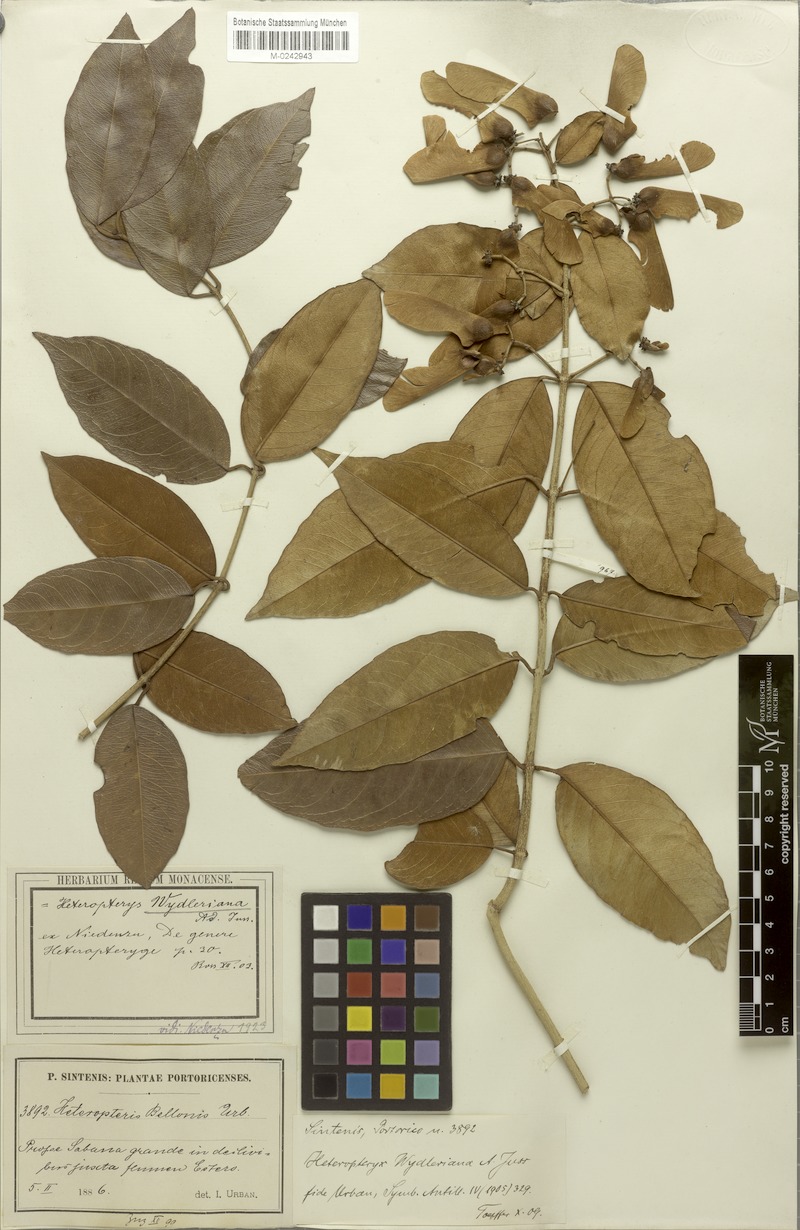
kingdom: Plantae
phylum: Tracheophyta
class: Magnoliopsida
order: Malpighiales
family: Malpighiaceae
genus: Heteropterys
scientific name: Heteropterys wydleriana
